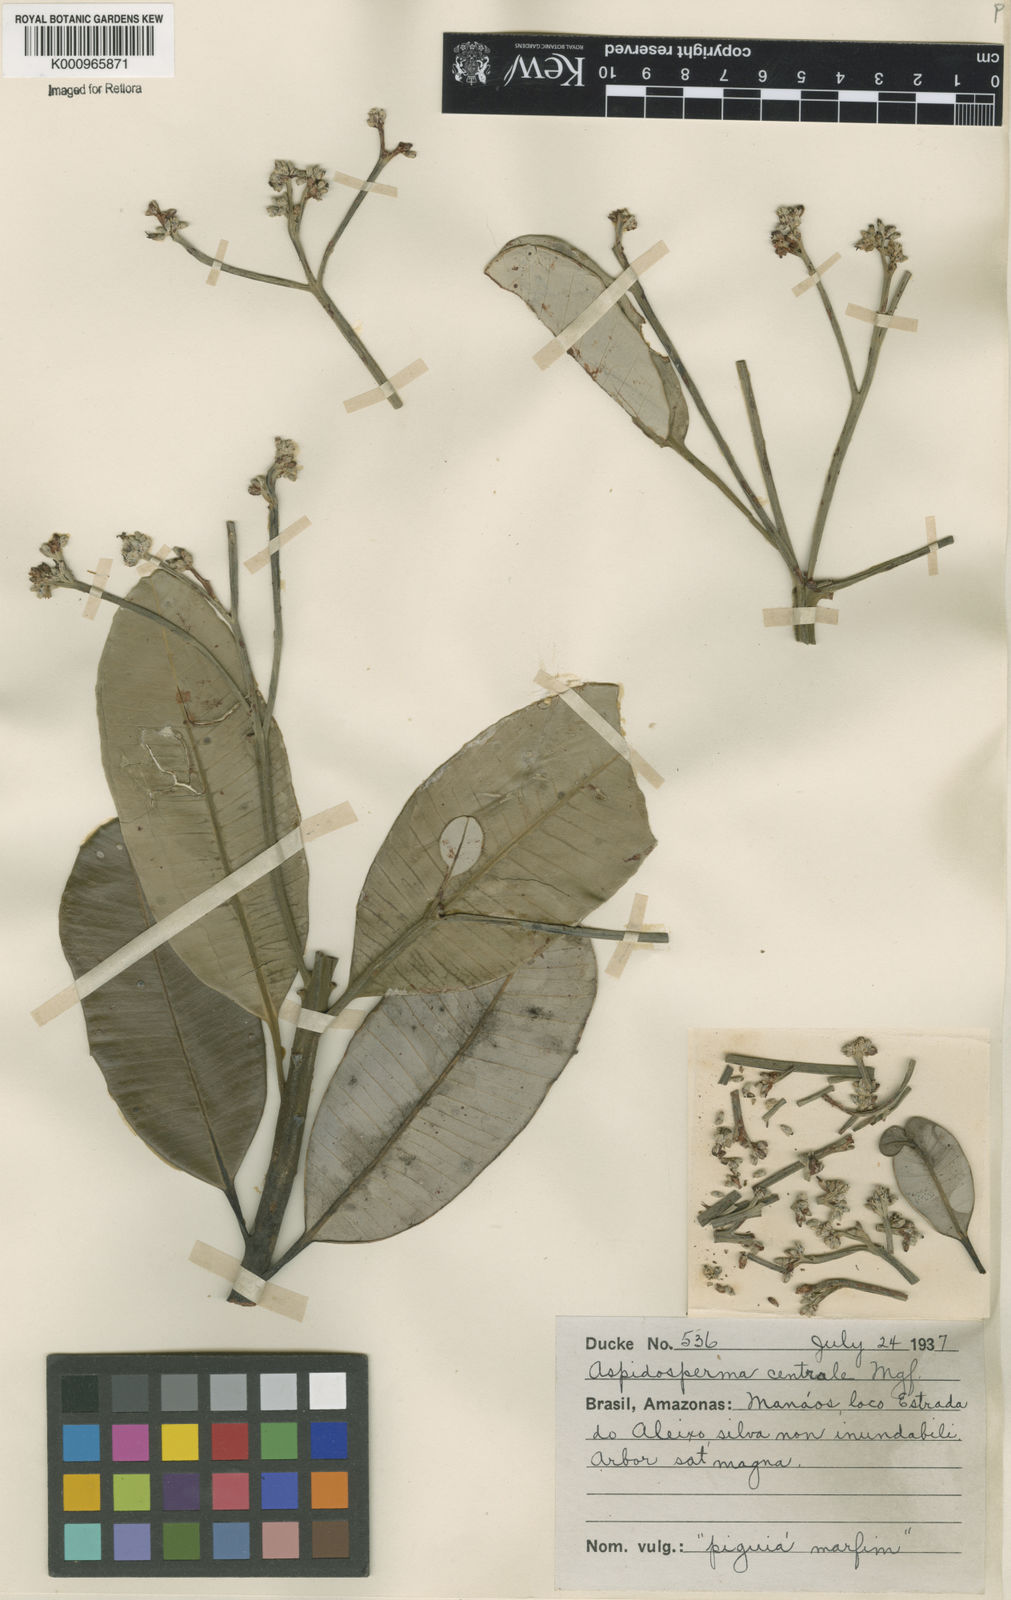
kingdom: Plantae
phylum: Tracheophyta
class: Magnoliopsida
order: Gentianales
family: Apocynaceae
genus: Aspidosperma
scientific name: Aspidosperma album
